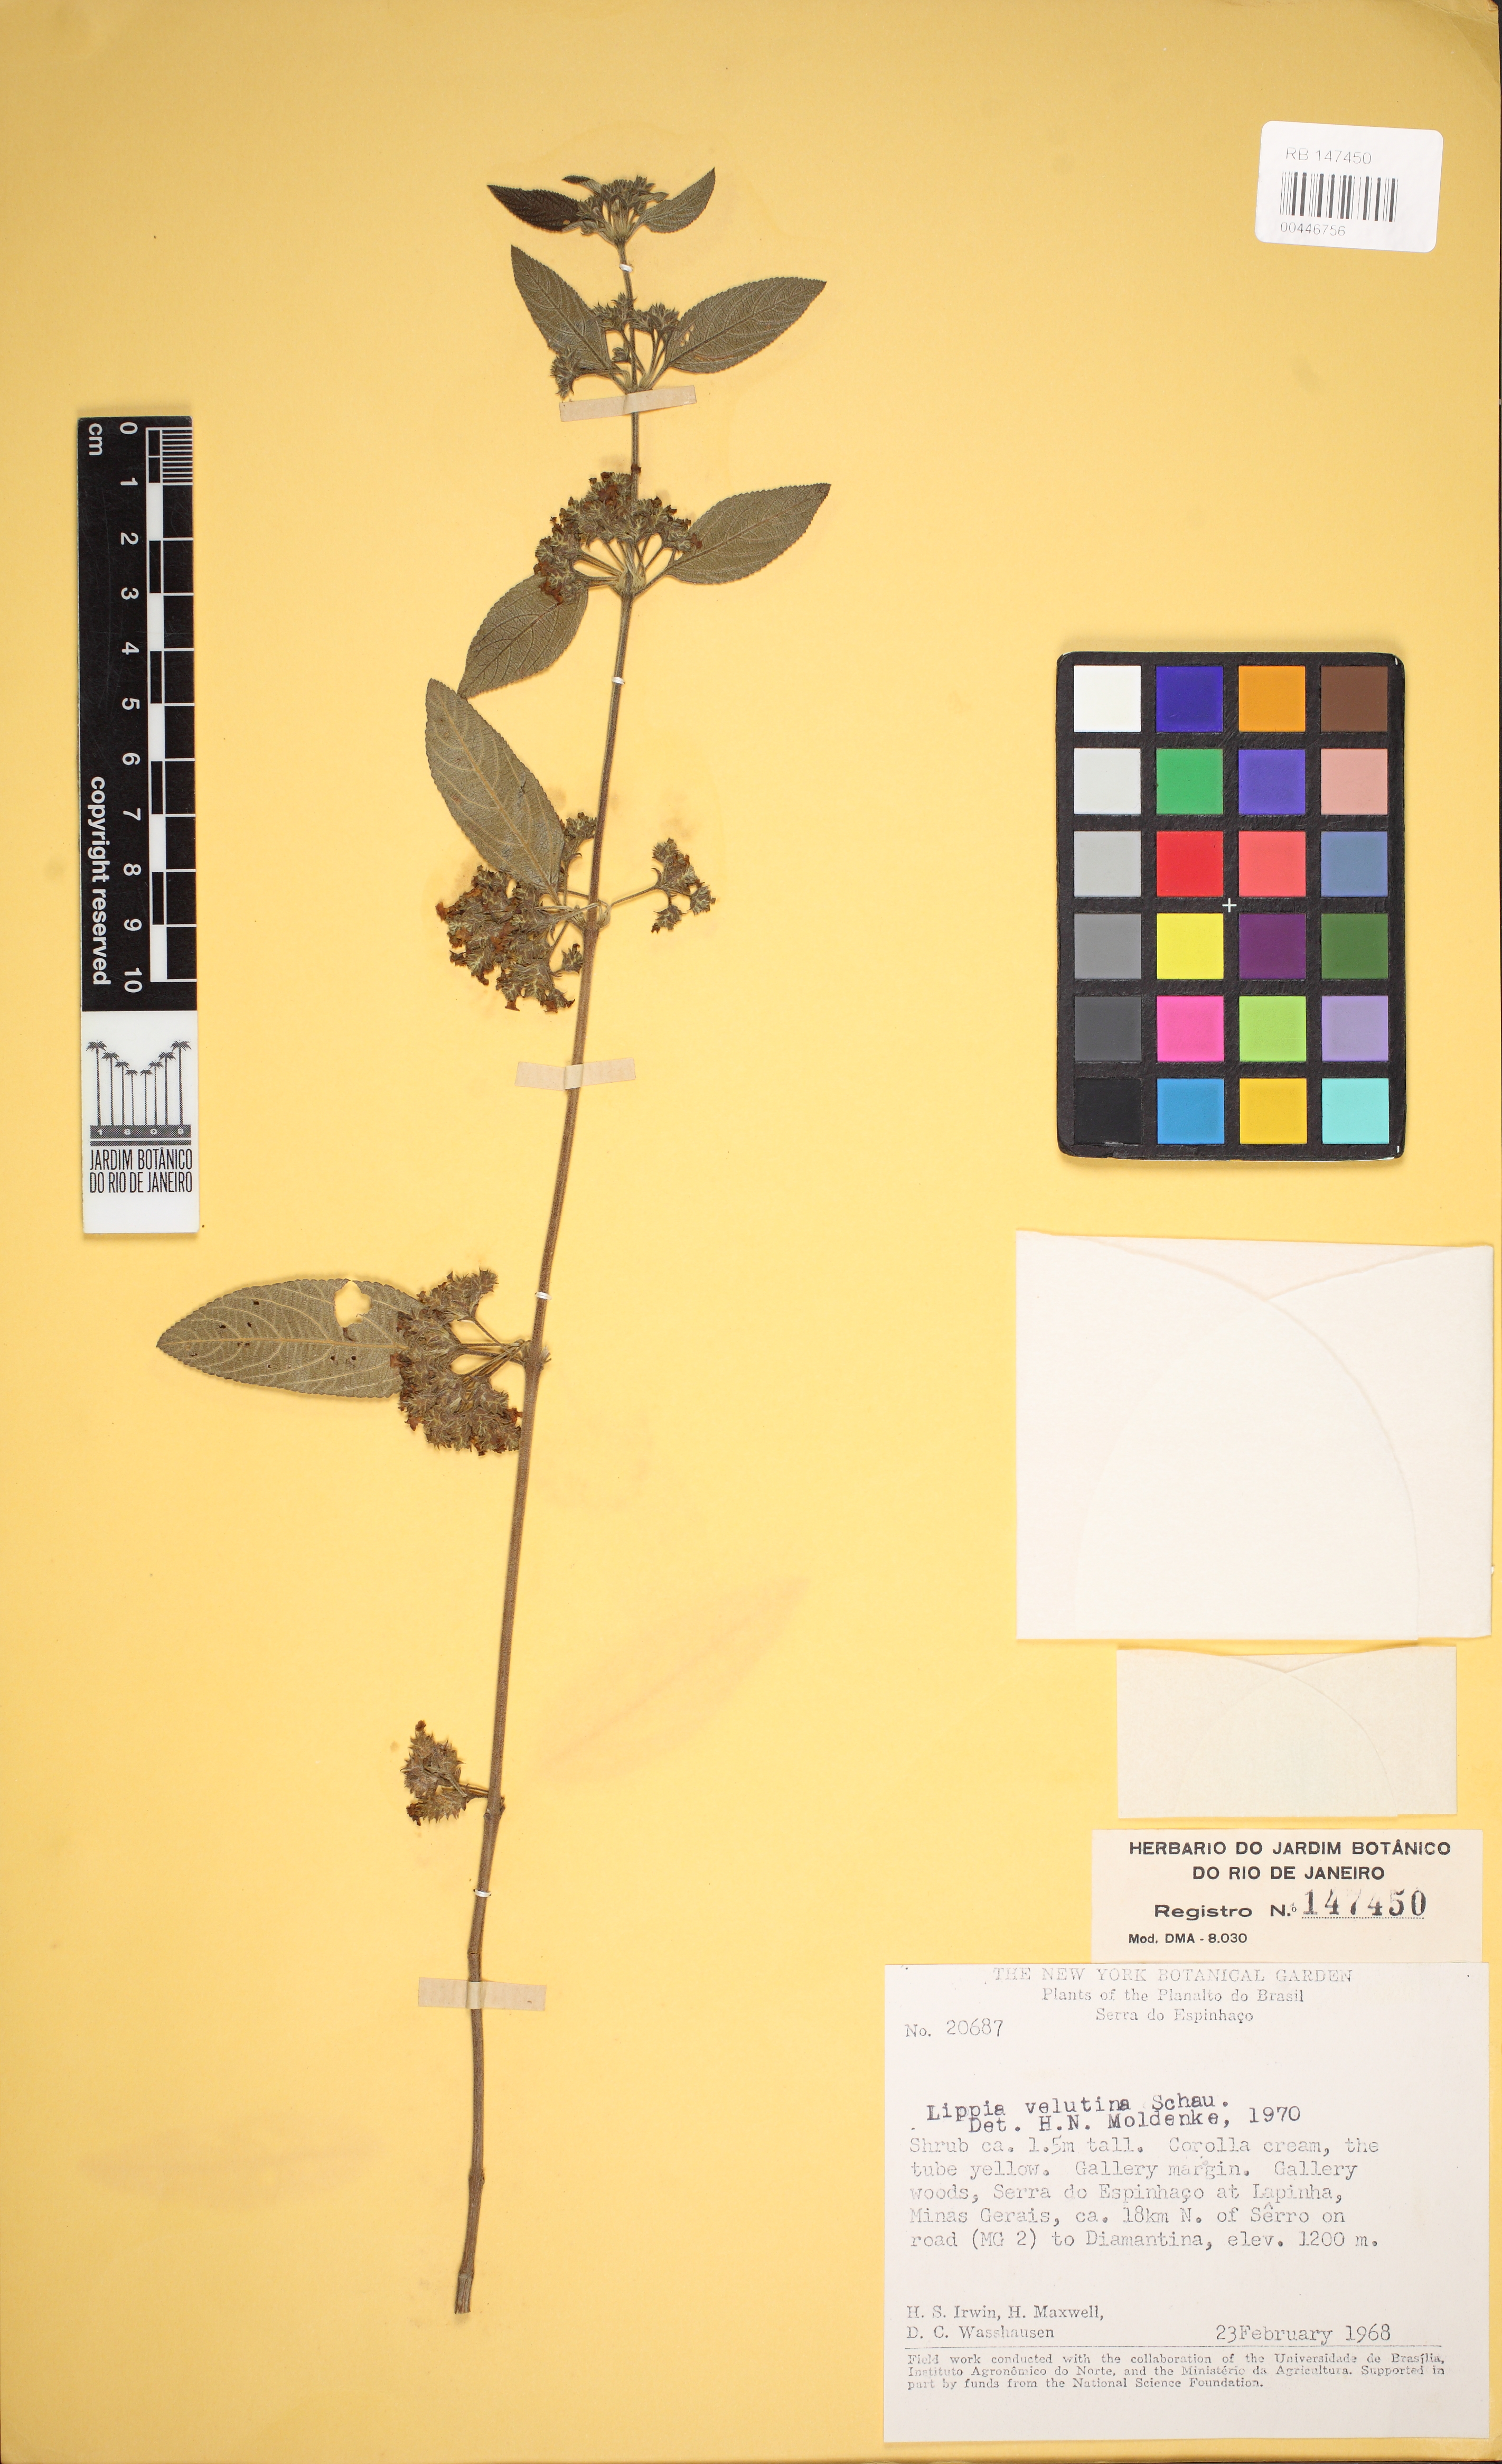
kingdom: Plantae
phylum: Tracheophyta
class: Magnoliopsida
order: Lamiales
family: Verbenaceae
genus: Lippia
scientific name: Lippia origanoides
